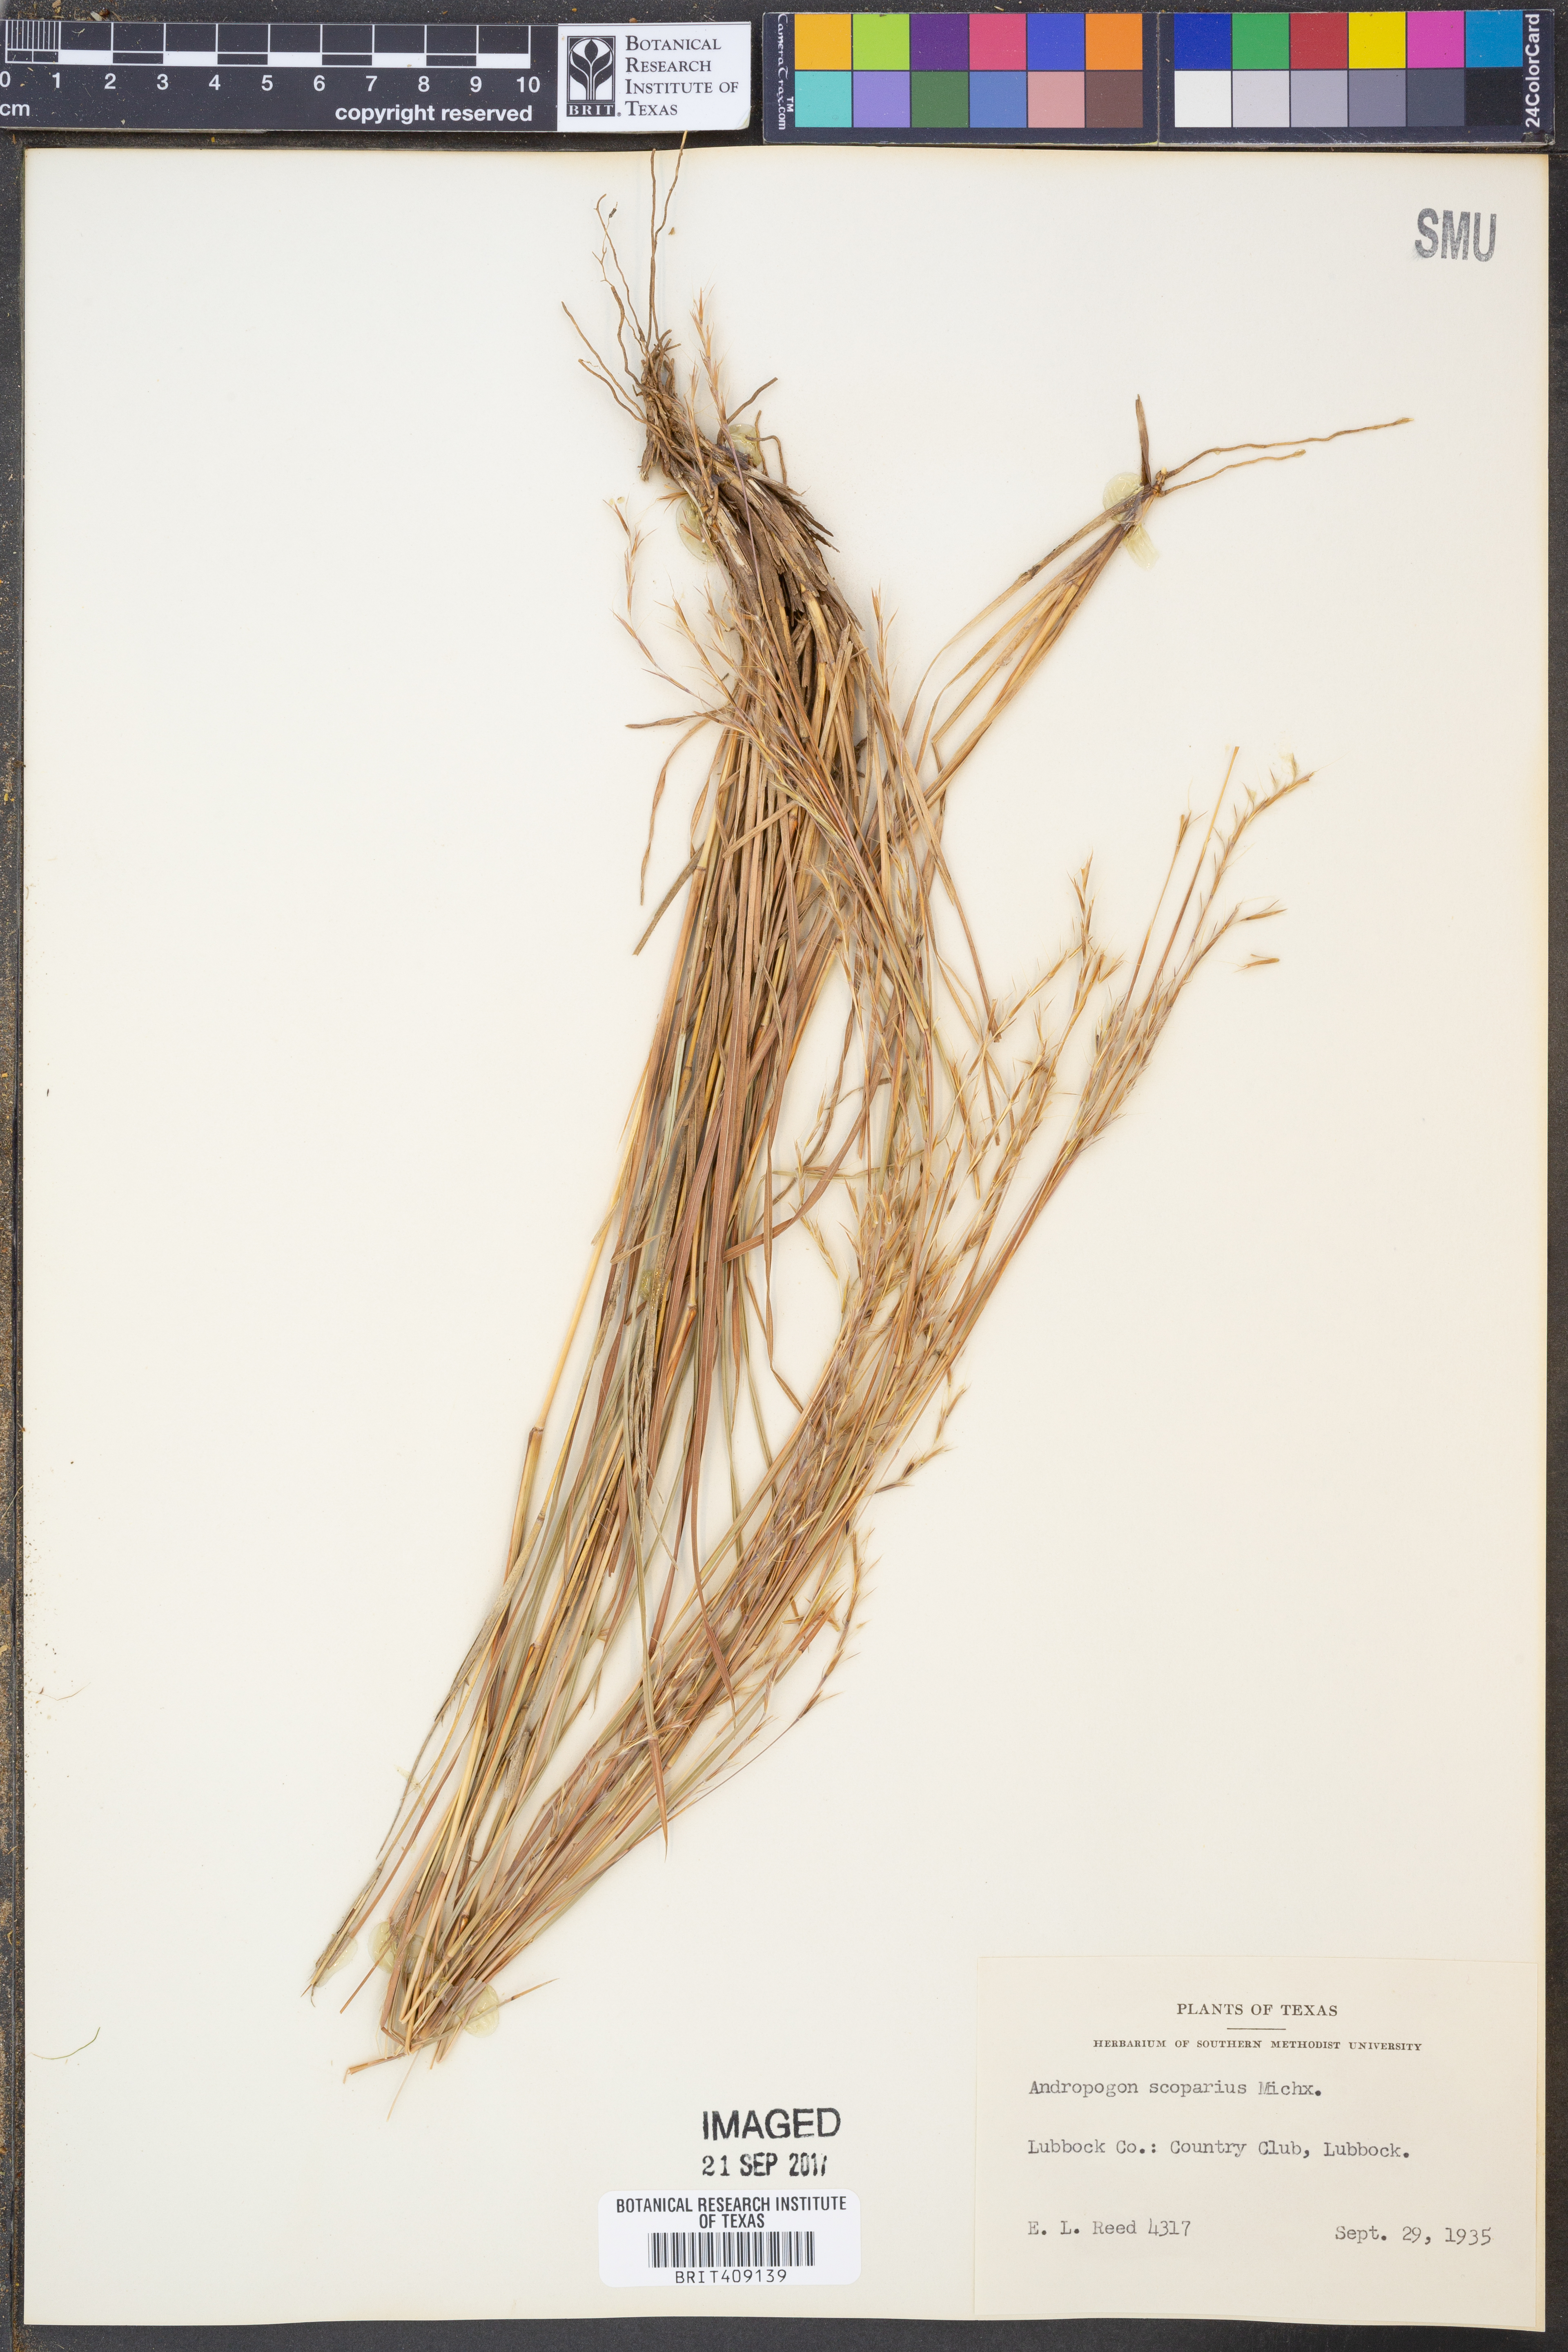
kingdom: Plantae
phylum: Tracheophyta
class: Liliopsida
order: Poales
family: Poaceae
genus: Schizachyrium
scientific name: Schizachyrium scoparium
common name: Little bluestem
